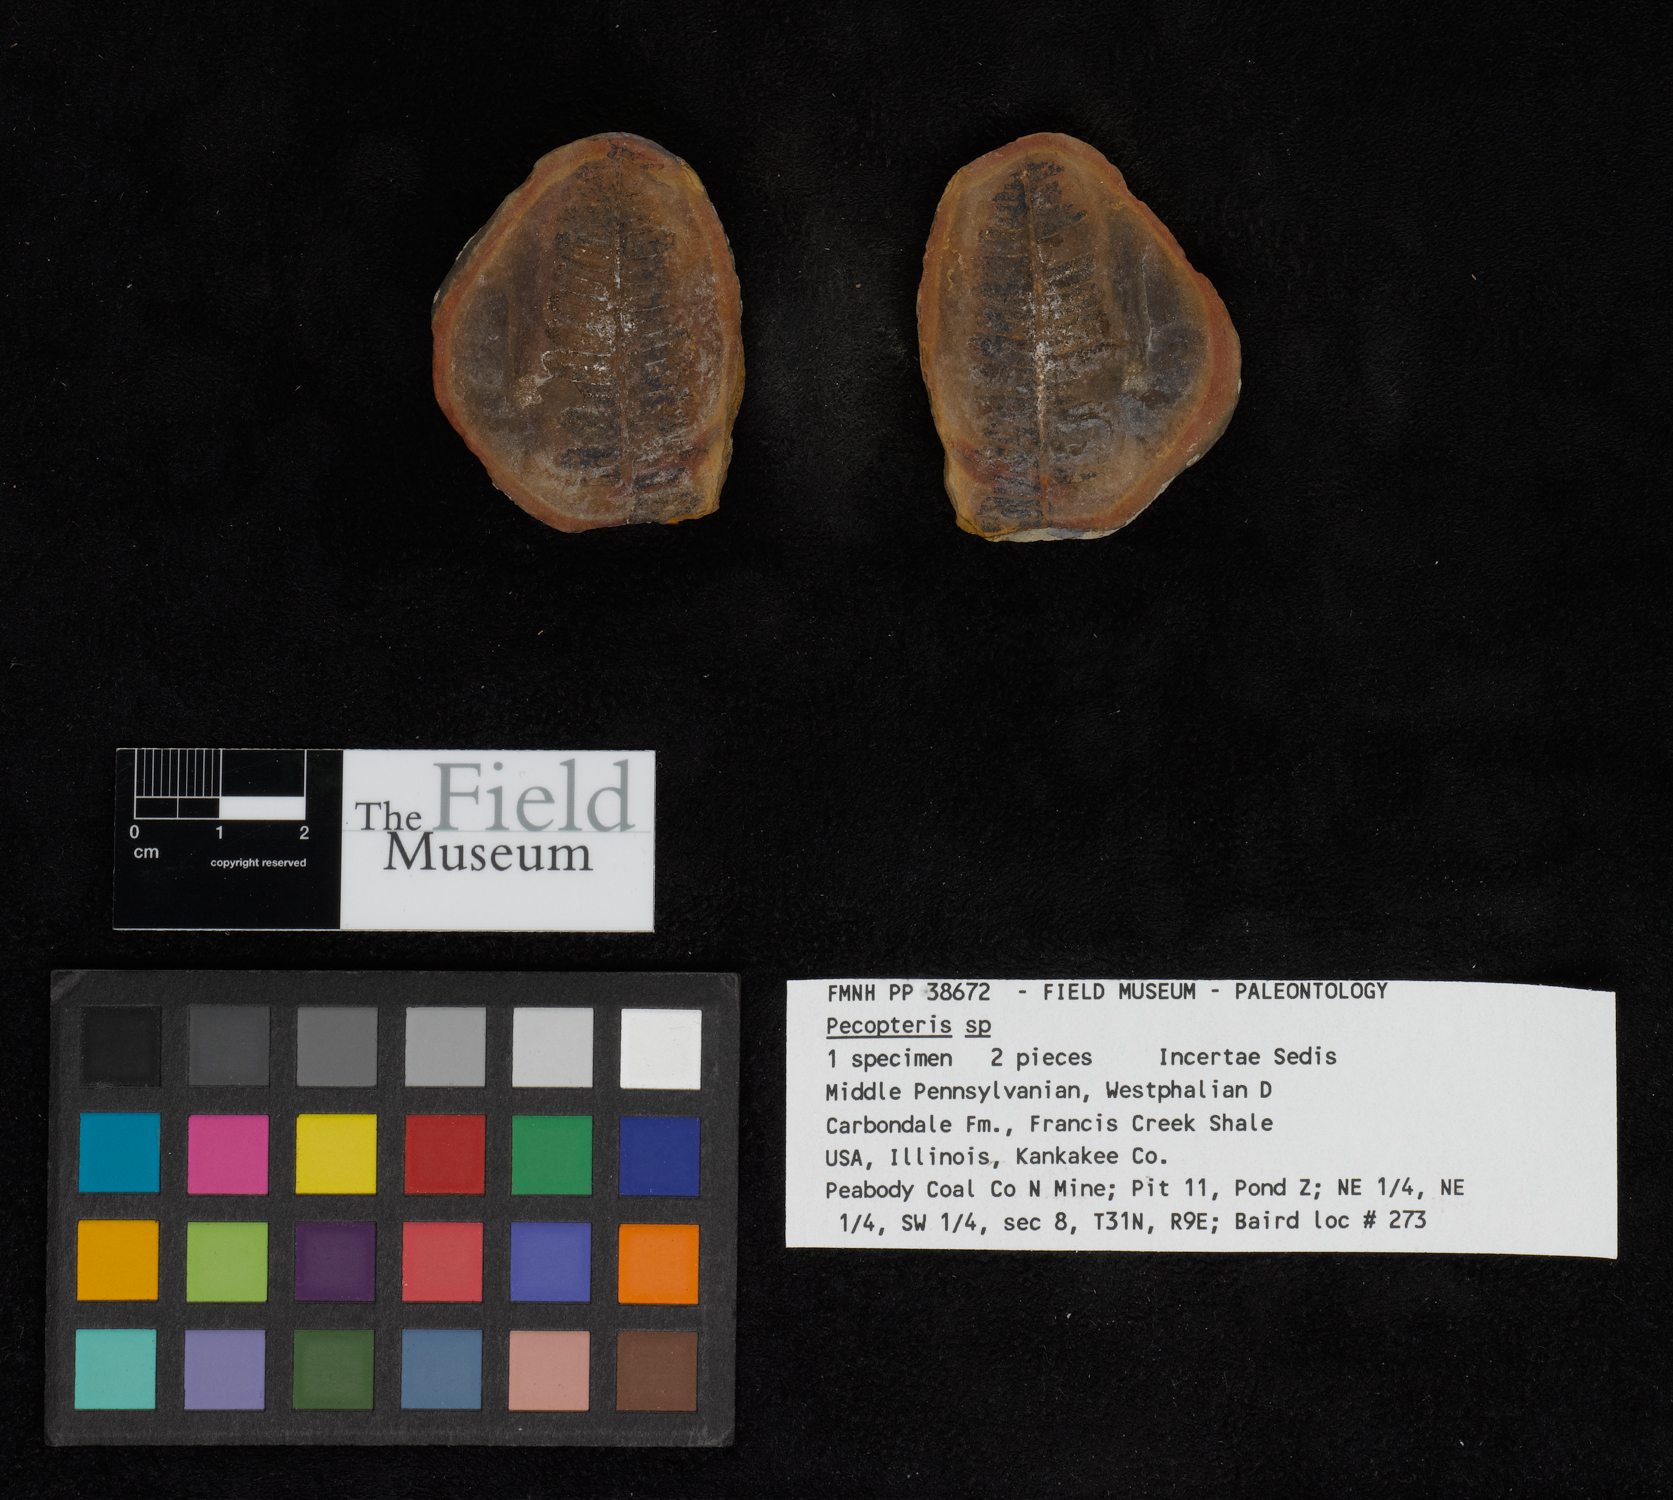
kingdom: Plantae
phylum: Tracheophyta
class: Polypodiopsida
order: Marattiales
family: Asterothecaceae
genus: Pecopteris
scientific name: Pecopteris
